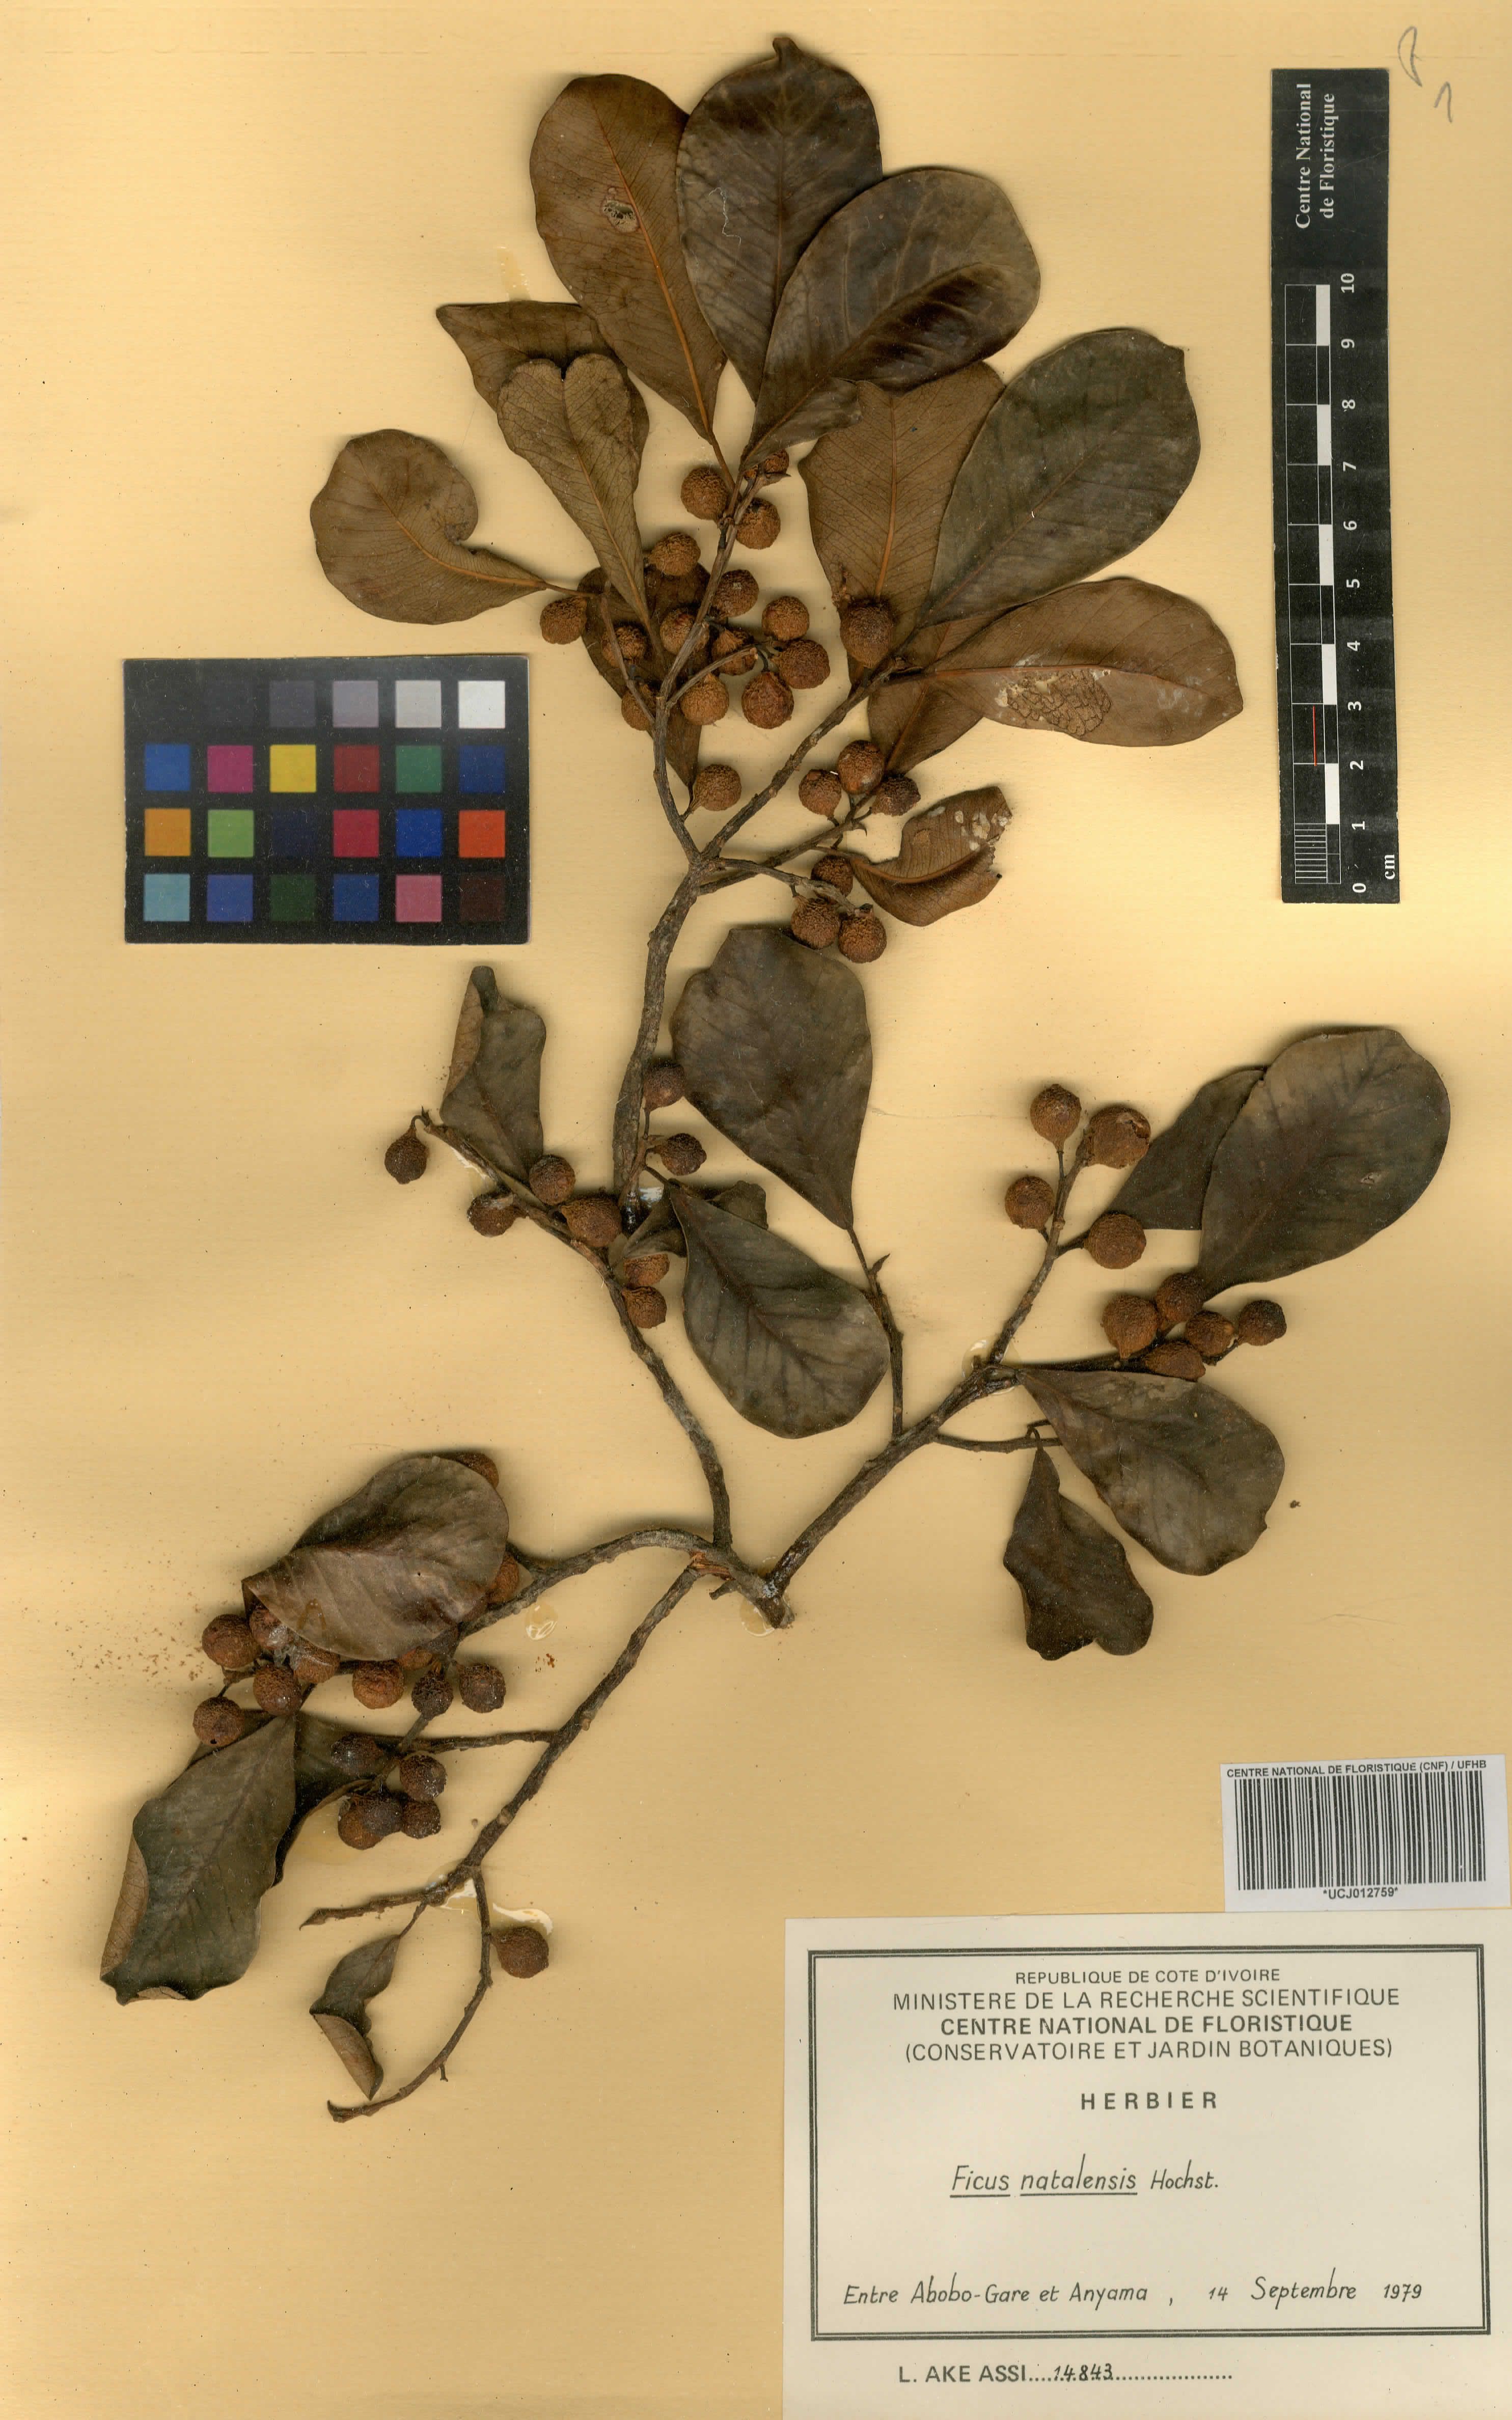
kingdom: Plantae
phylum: Tracheophyta
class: Magnoliopsida
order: Rosales
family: Moraceae
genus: Ficus
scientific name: Ficus natalensis
